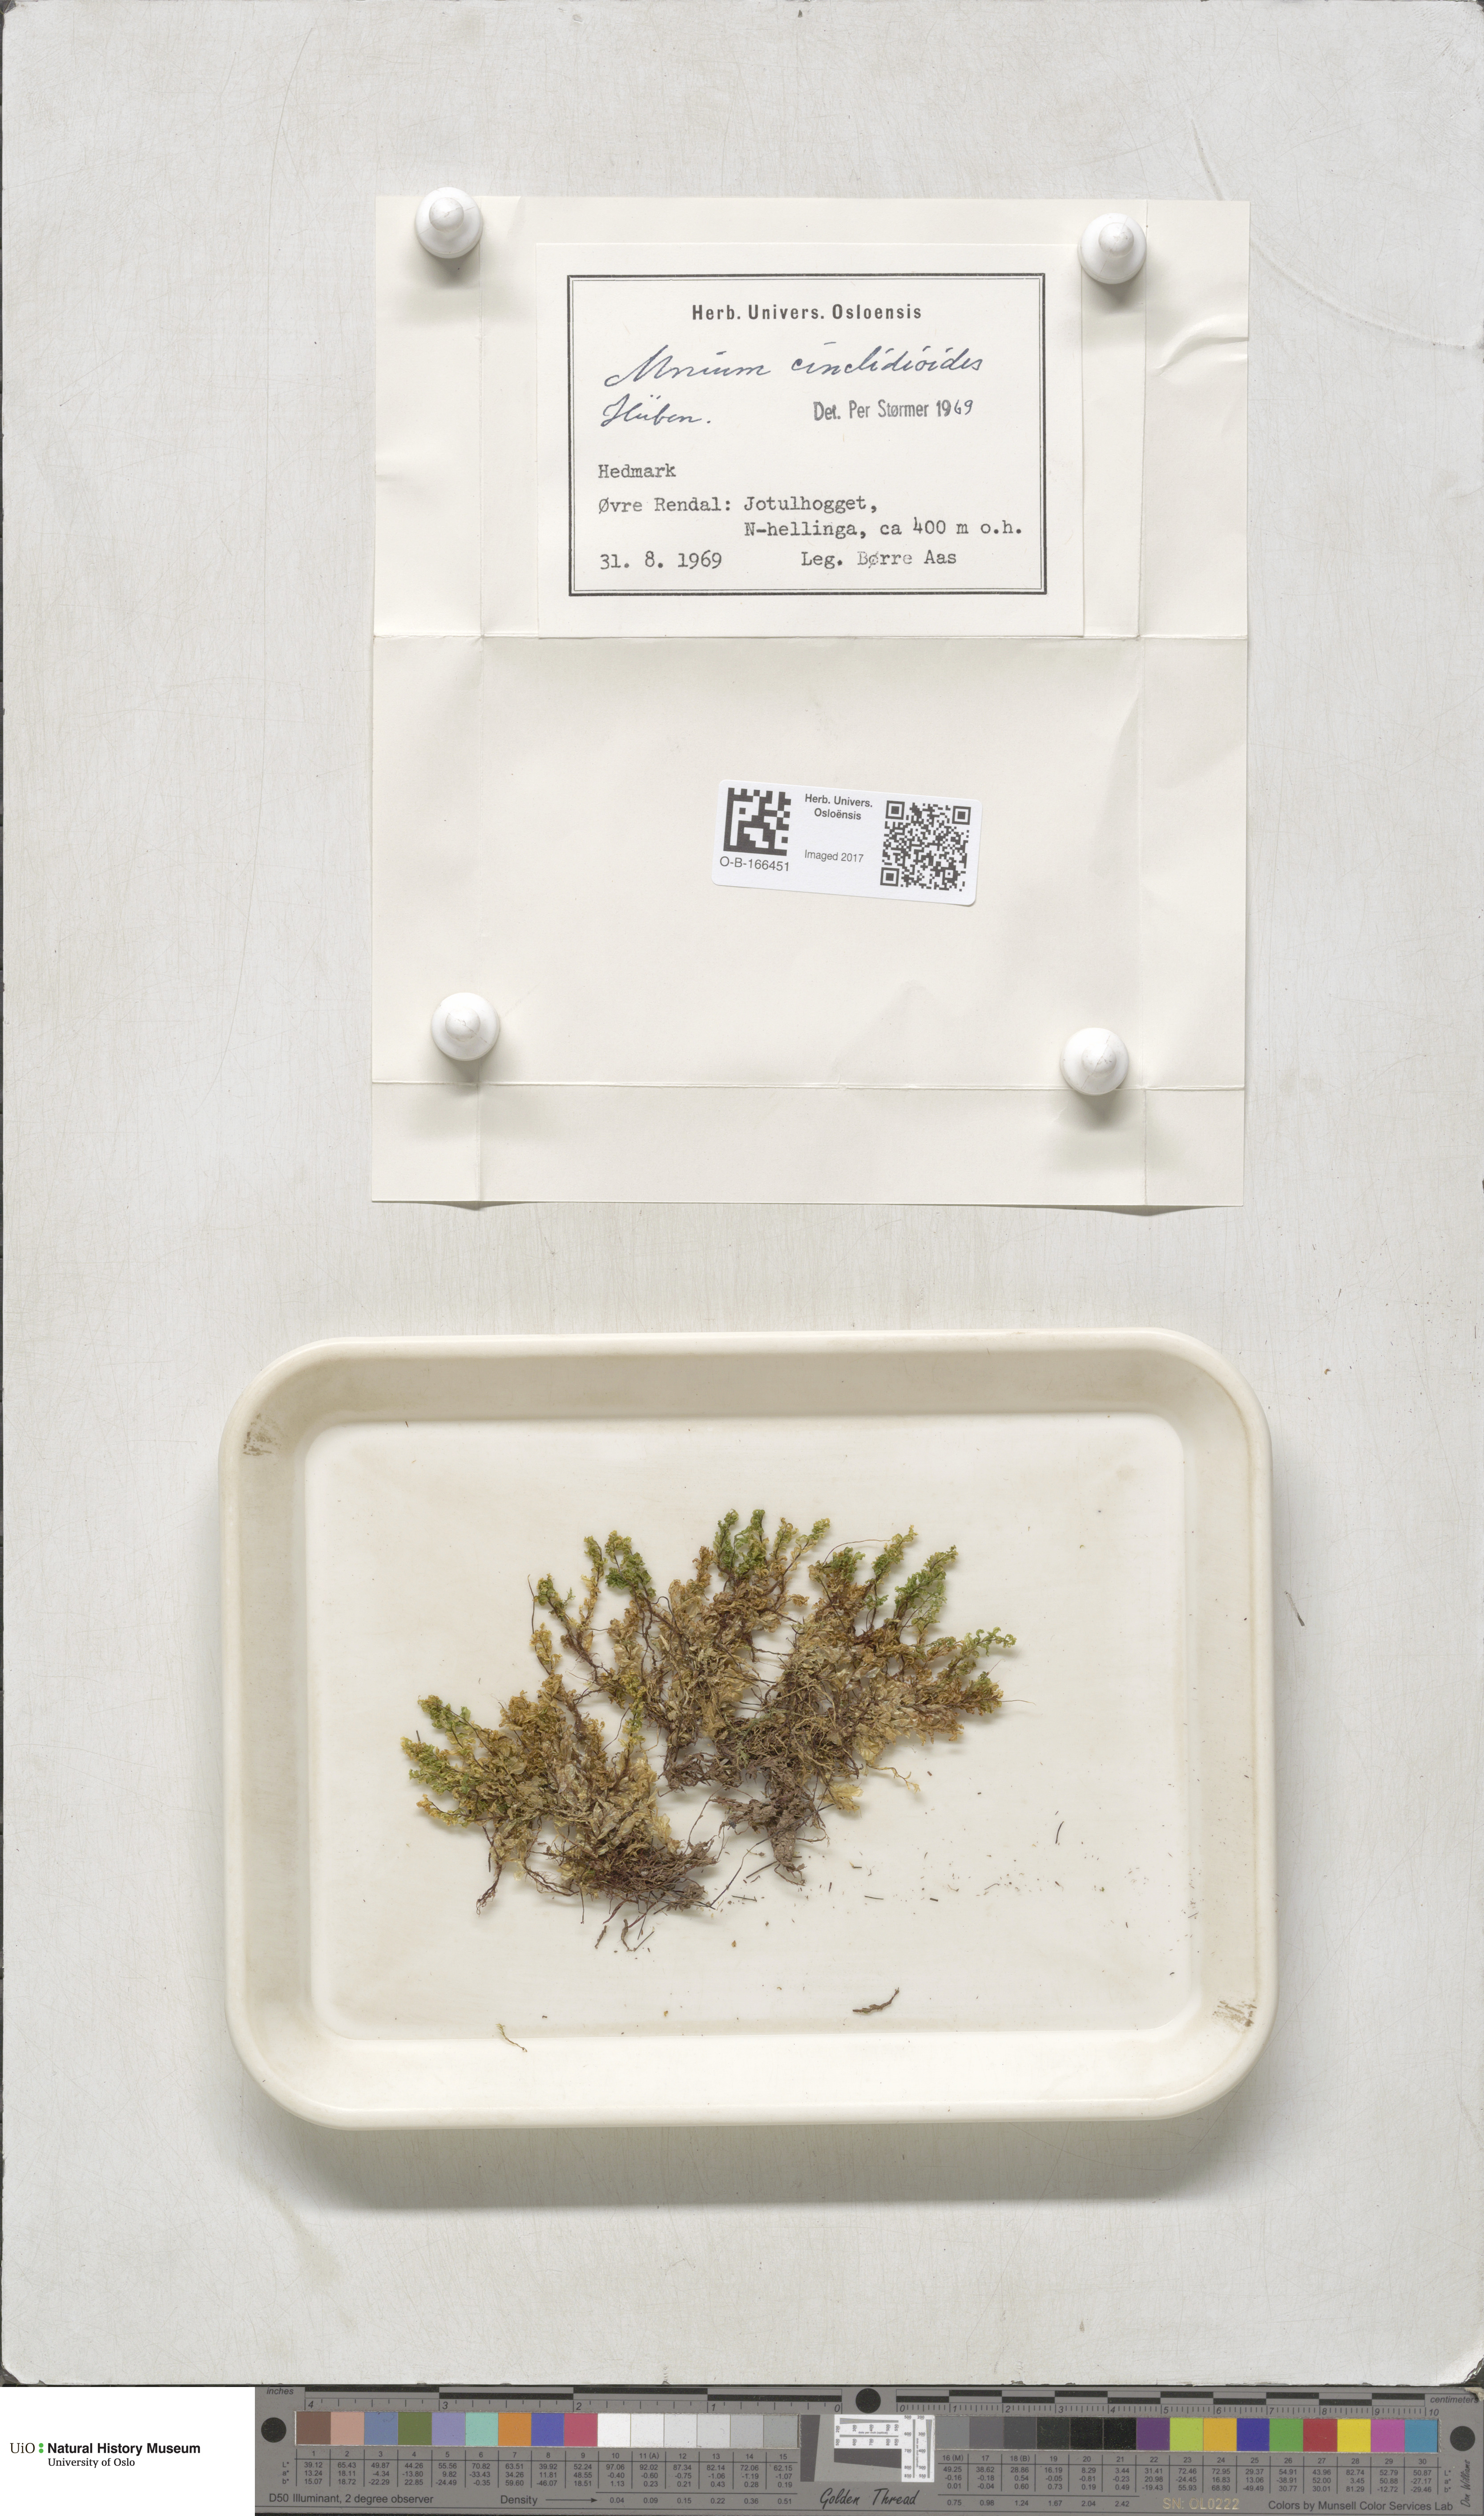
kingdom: Plantae
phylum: Bryophyta
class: Bryopsida
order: Bryales
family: Mniaceae
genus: Pseudobryum
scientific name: Pseudobryum cinclidioides
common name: River thyme moss
